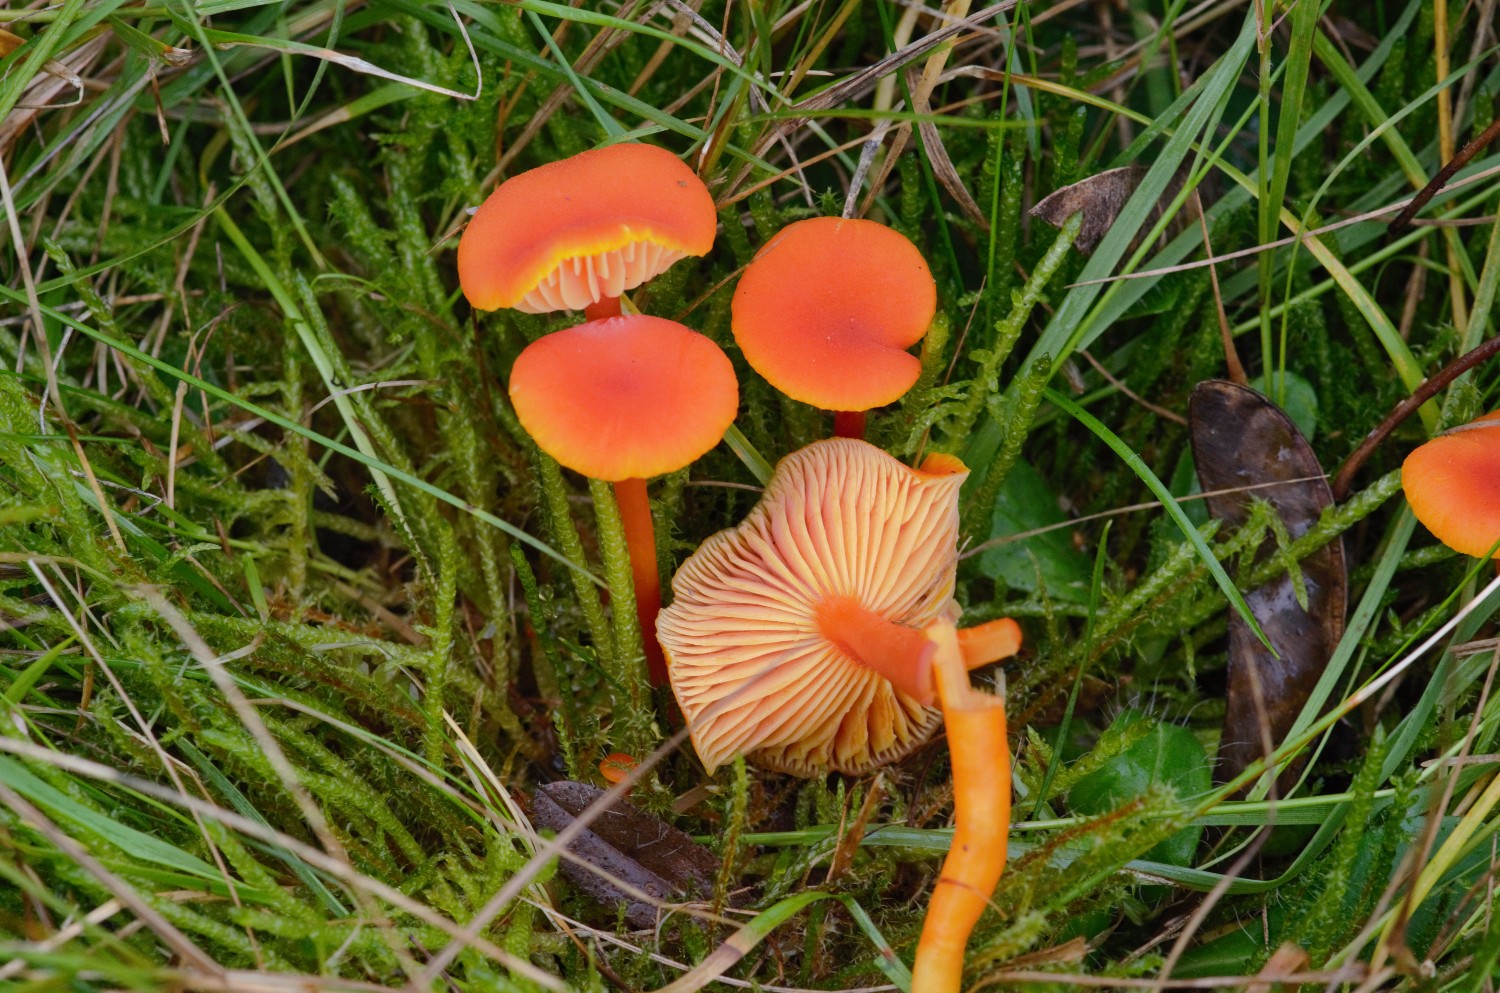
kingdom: Fungi
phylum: Basidiomycota
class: Agaricomycetes
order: Agaricales
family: Hygrophoraceae
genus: Hygrocybe
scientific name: Hygrocybe miniata
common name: mønje-vokshat
